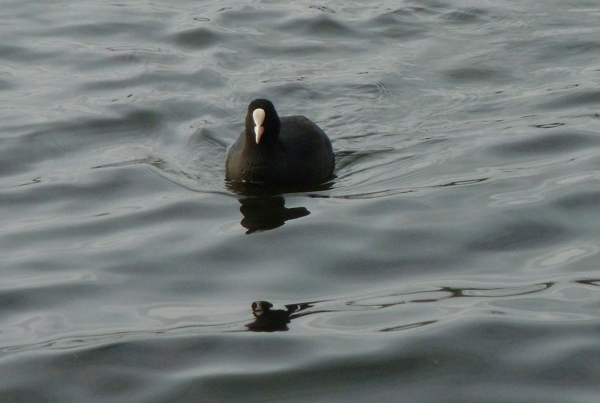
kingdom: Animalia
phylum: Chordata
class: Aves
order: Gruiformes
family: Rallidae
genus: Fulica
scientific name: Fulica atra
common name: Eurasian coot
